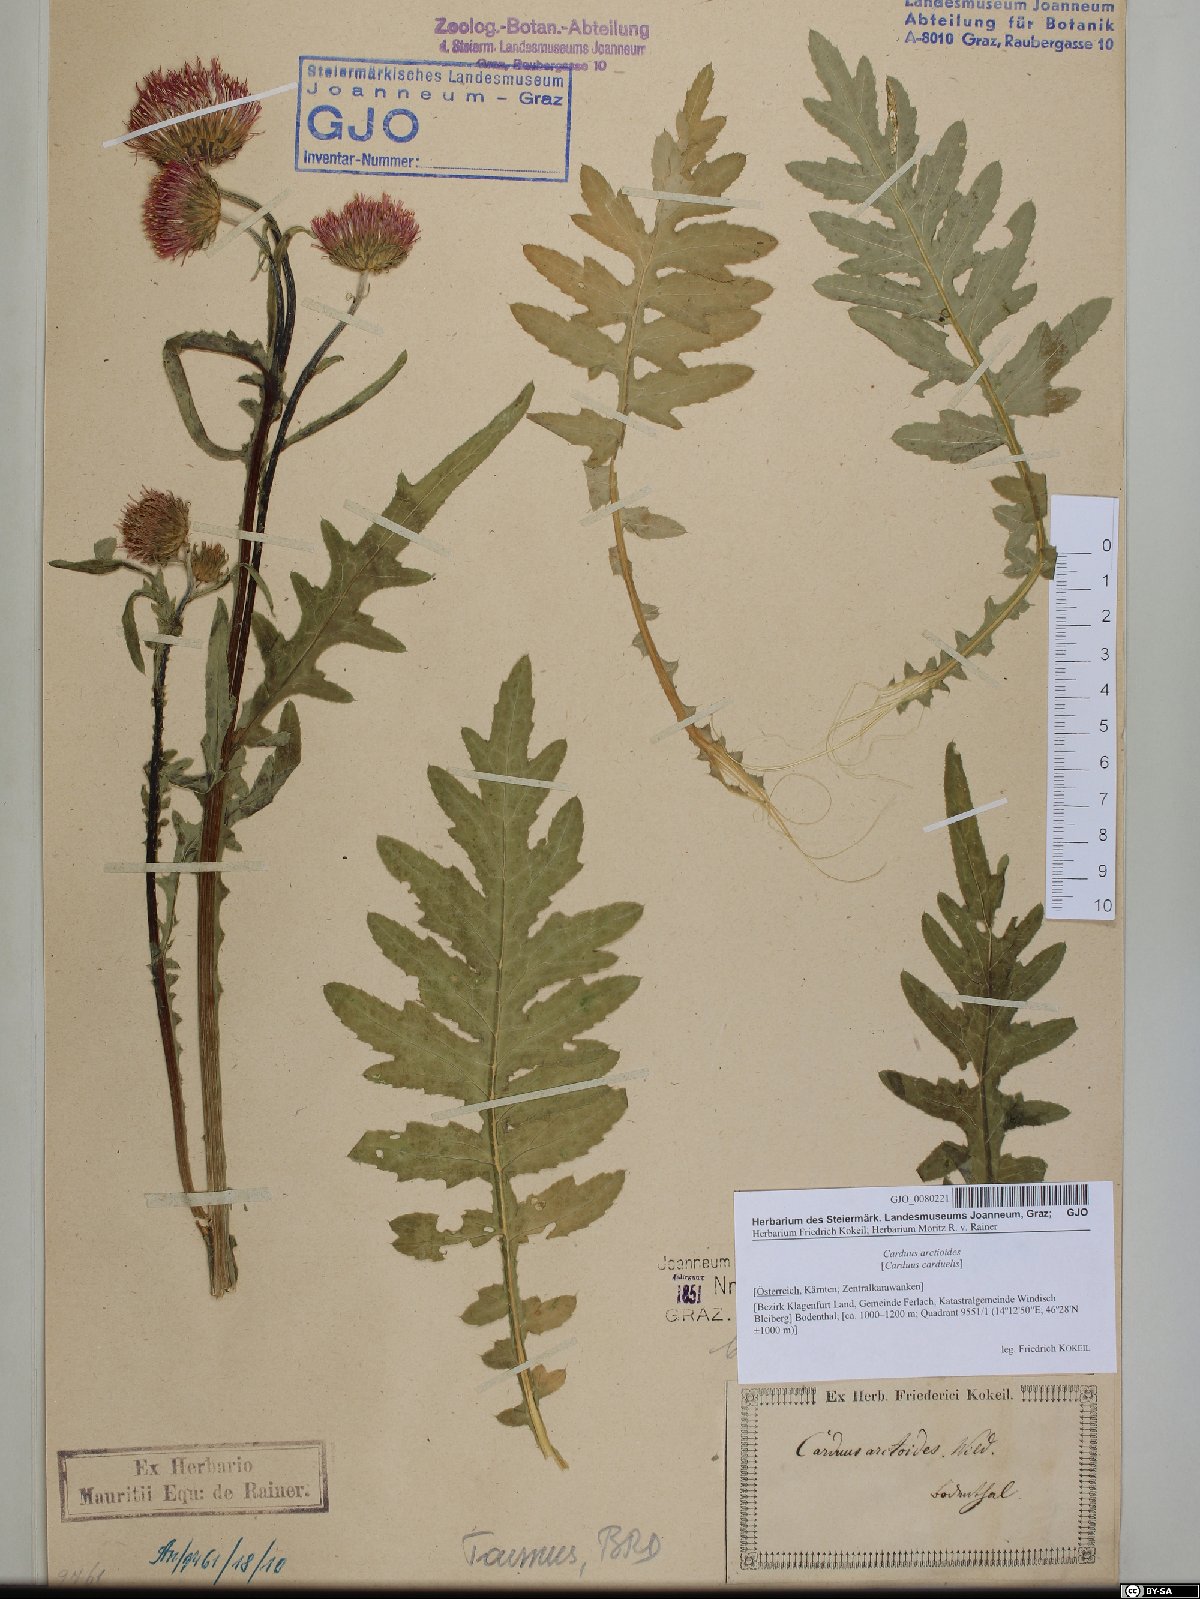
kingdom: Plantae
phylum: Tracheophyta
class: Magnoliopsida
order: Asterales
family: Asteraceae
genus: Carduus
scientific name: Carduus carduelis
